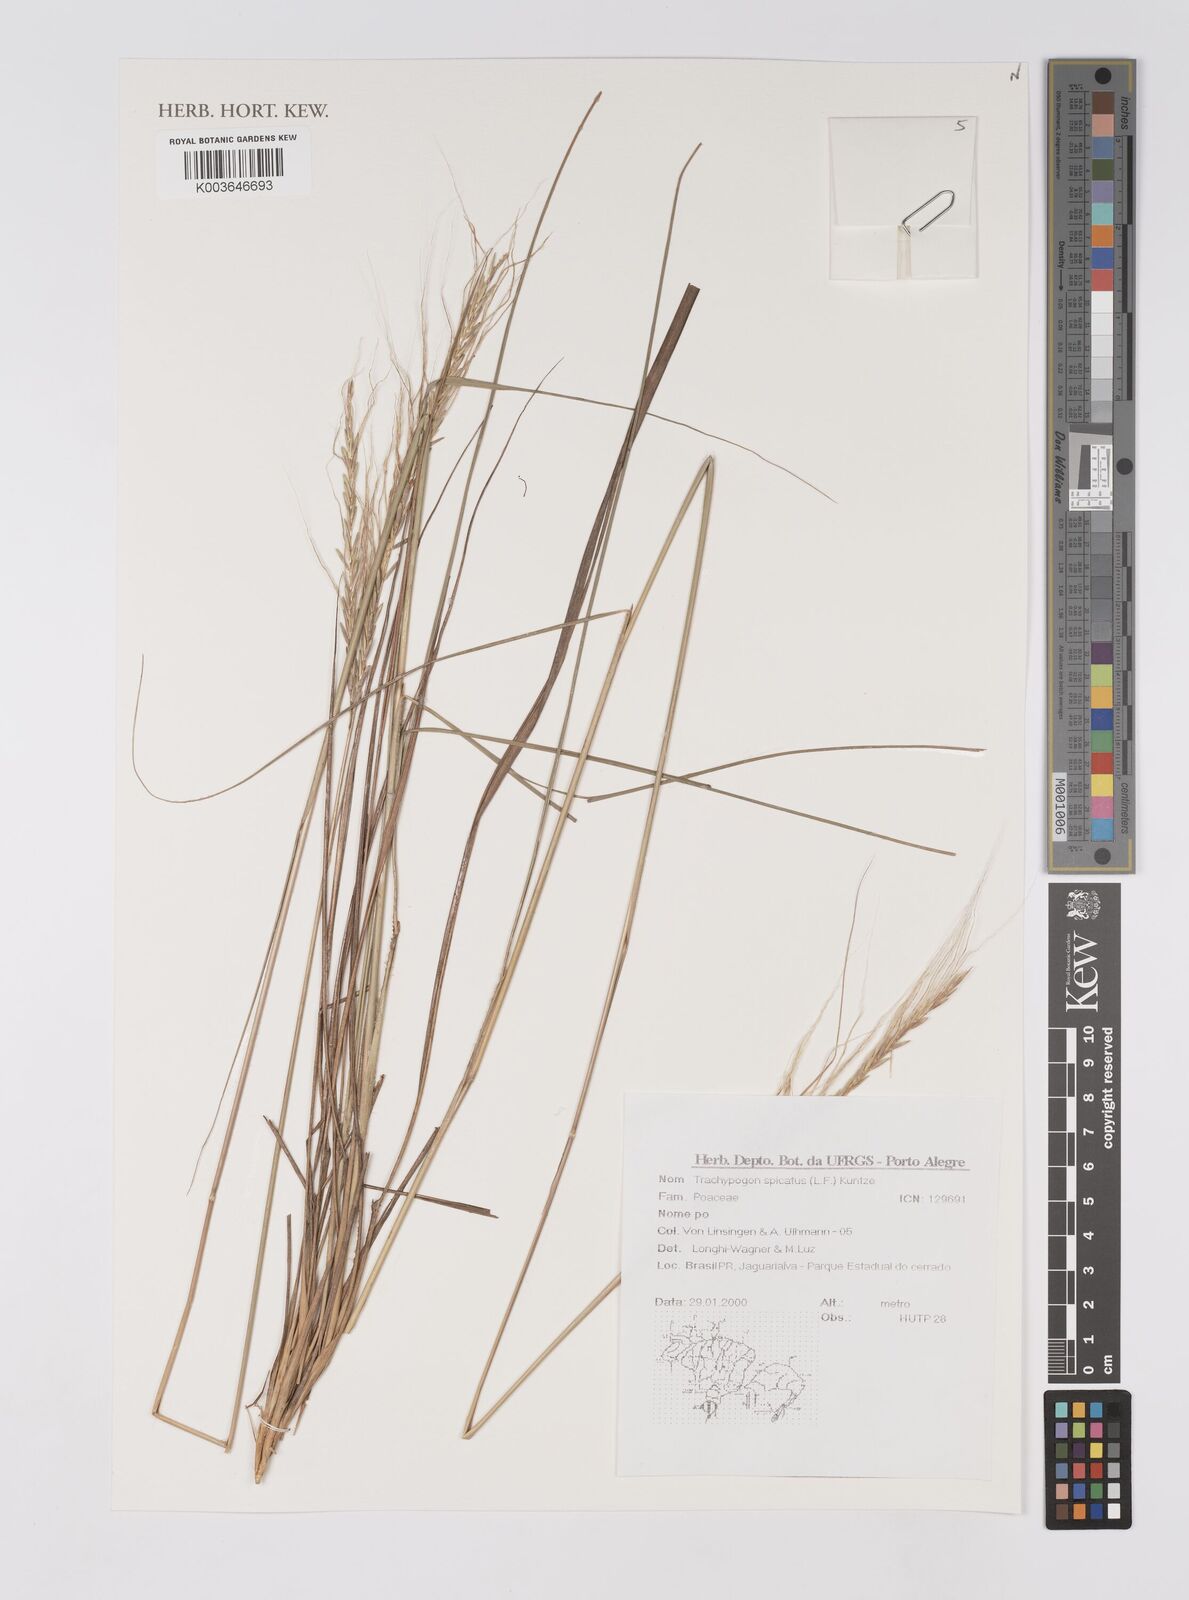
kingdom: Plantae
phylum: Tracheophyta
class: Liliopsida
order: Poales
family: Poaceae
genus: Trachypogon
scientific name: Trachypogon spicatus
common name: Crinkle-awn
